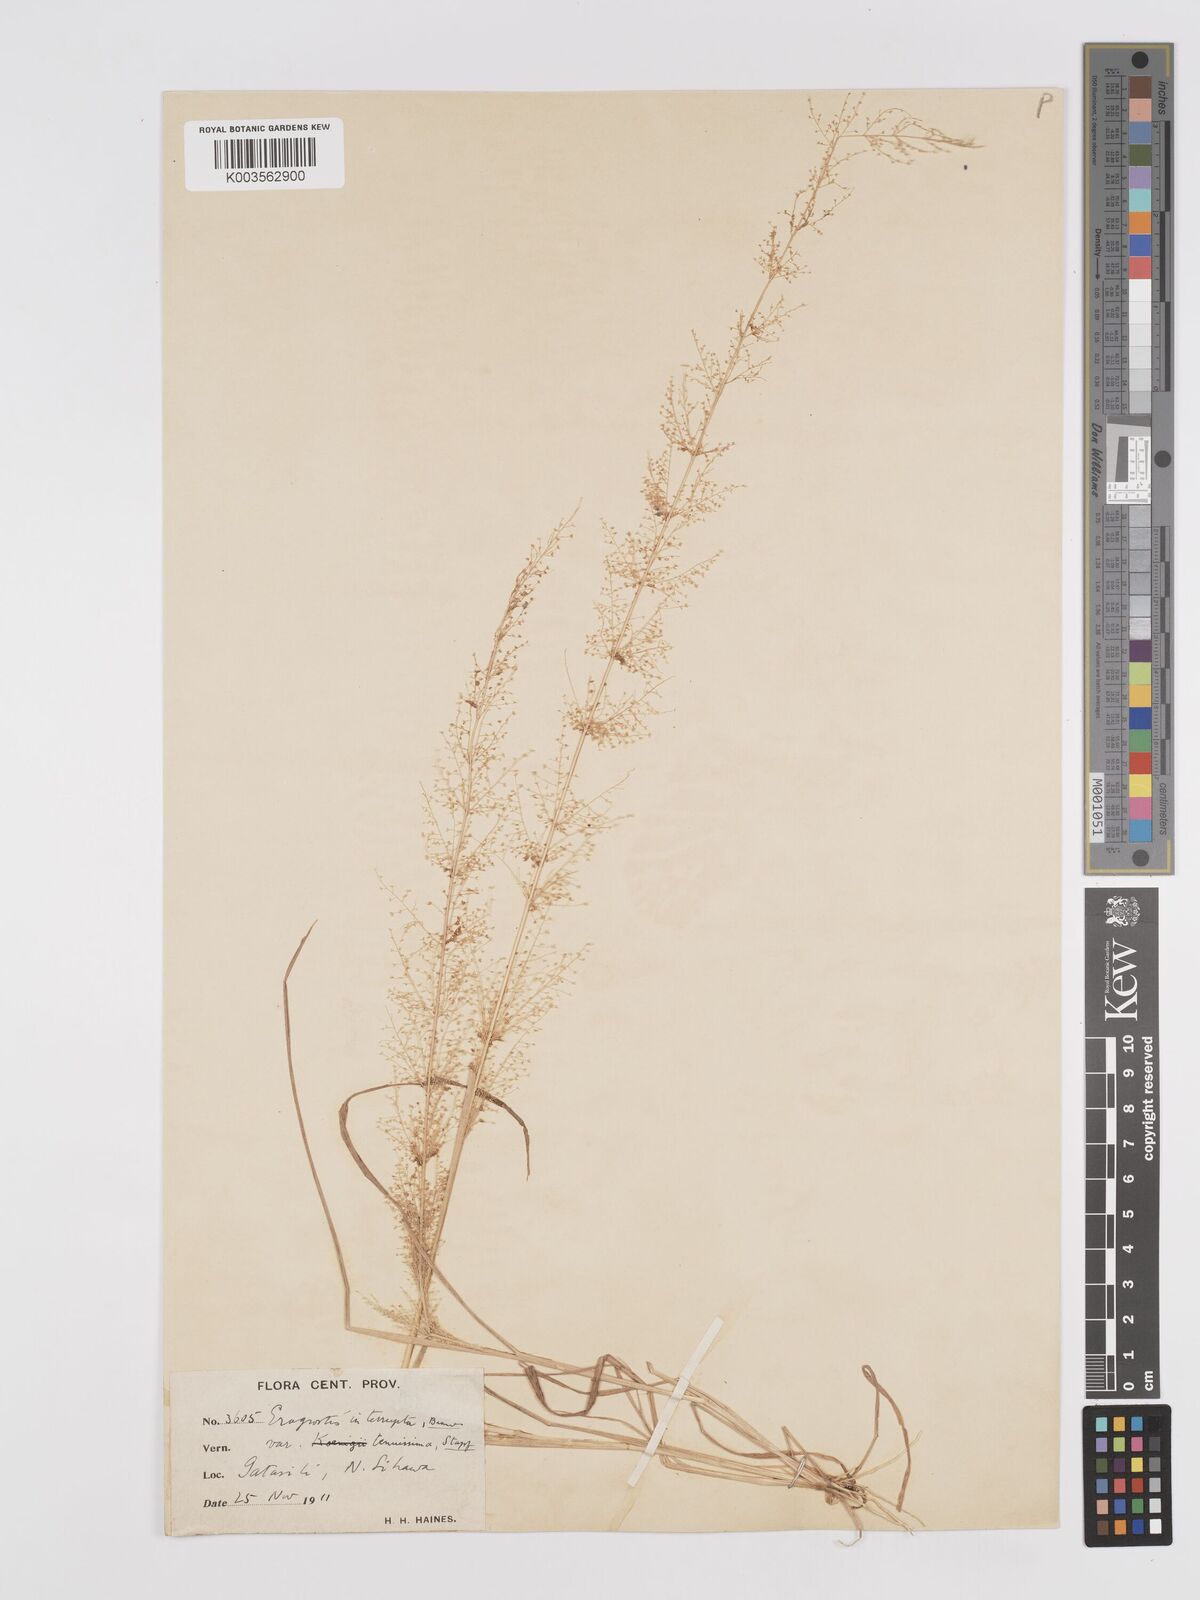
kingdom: Plantae
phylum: Tracheophyta
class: Liliopsida
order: Poales
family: Poaceae
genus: Eragrostis
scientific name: Eragrostis japonica
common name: Pond lovegrass
